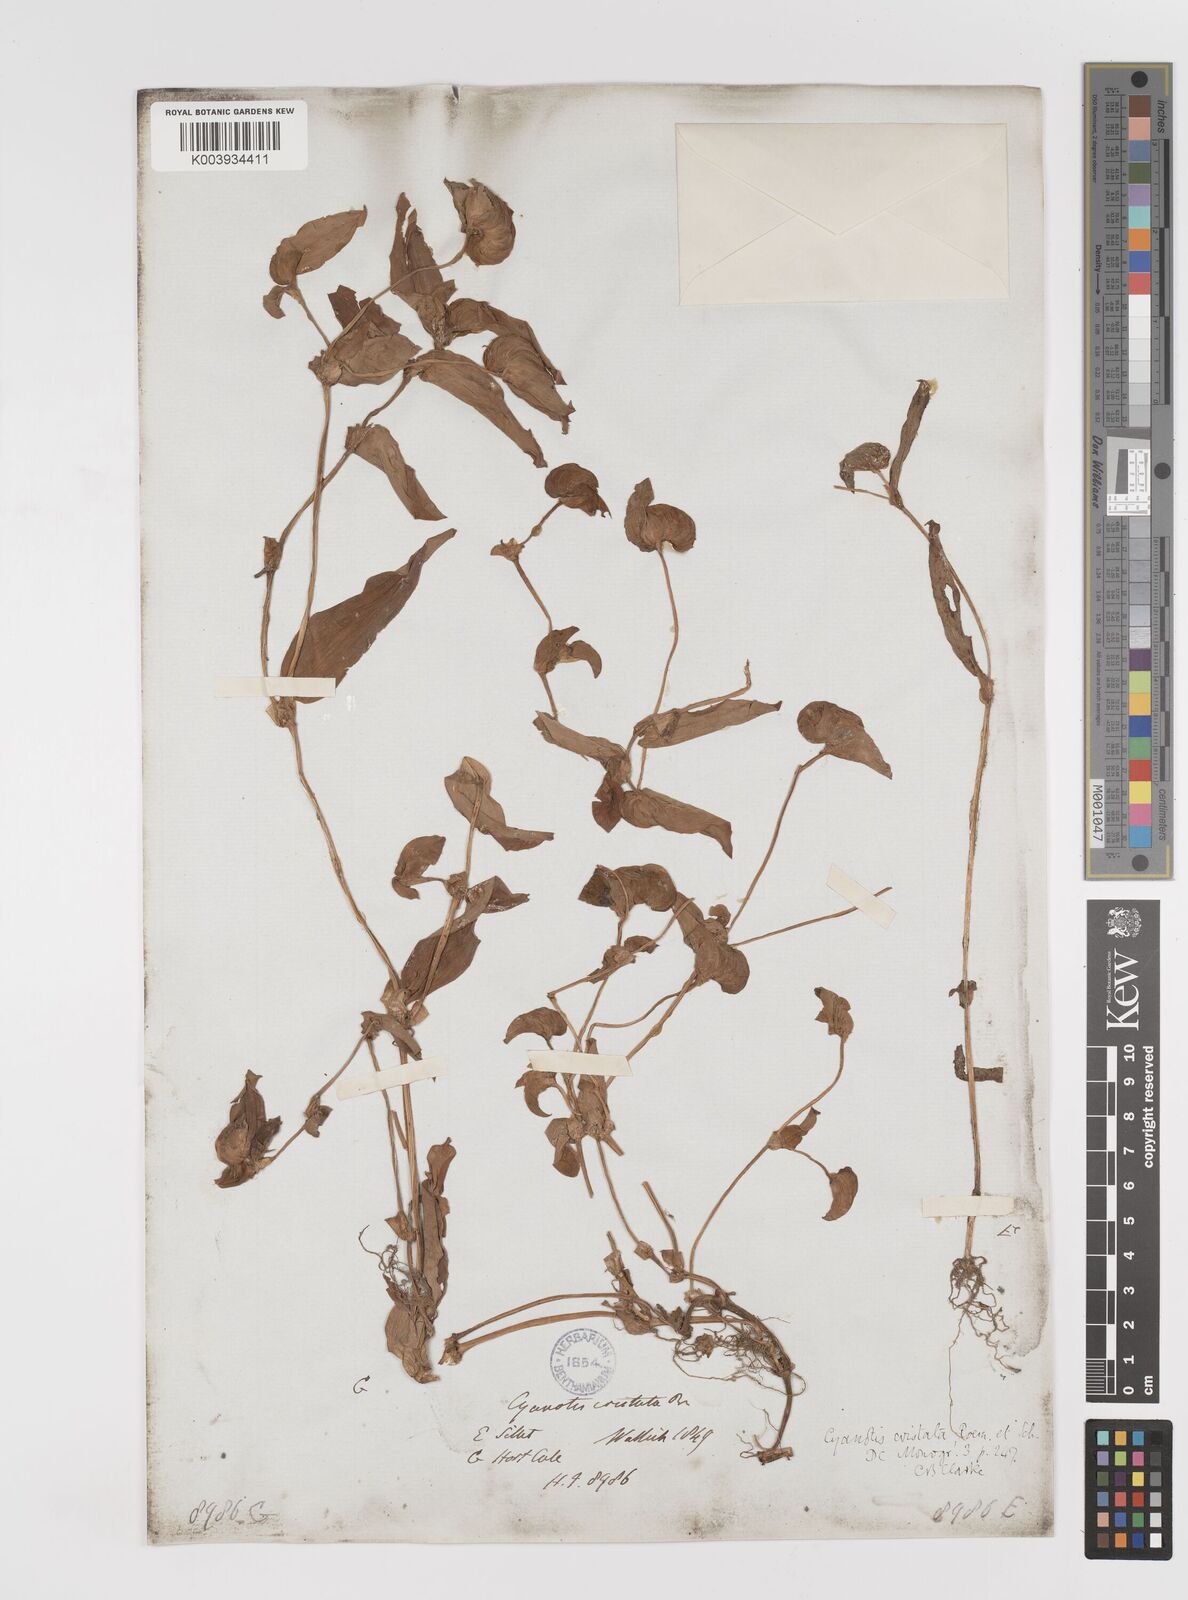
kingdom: Plantae
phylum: Tracheophyta
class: Liliopsida
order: Commelinales
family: Commelinaceae
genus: Cyanotis
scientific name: Cyanotis cristata
